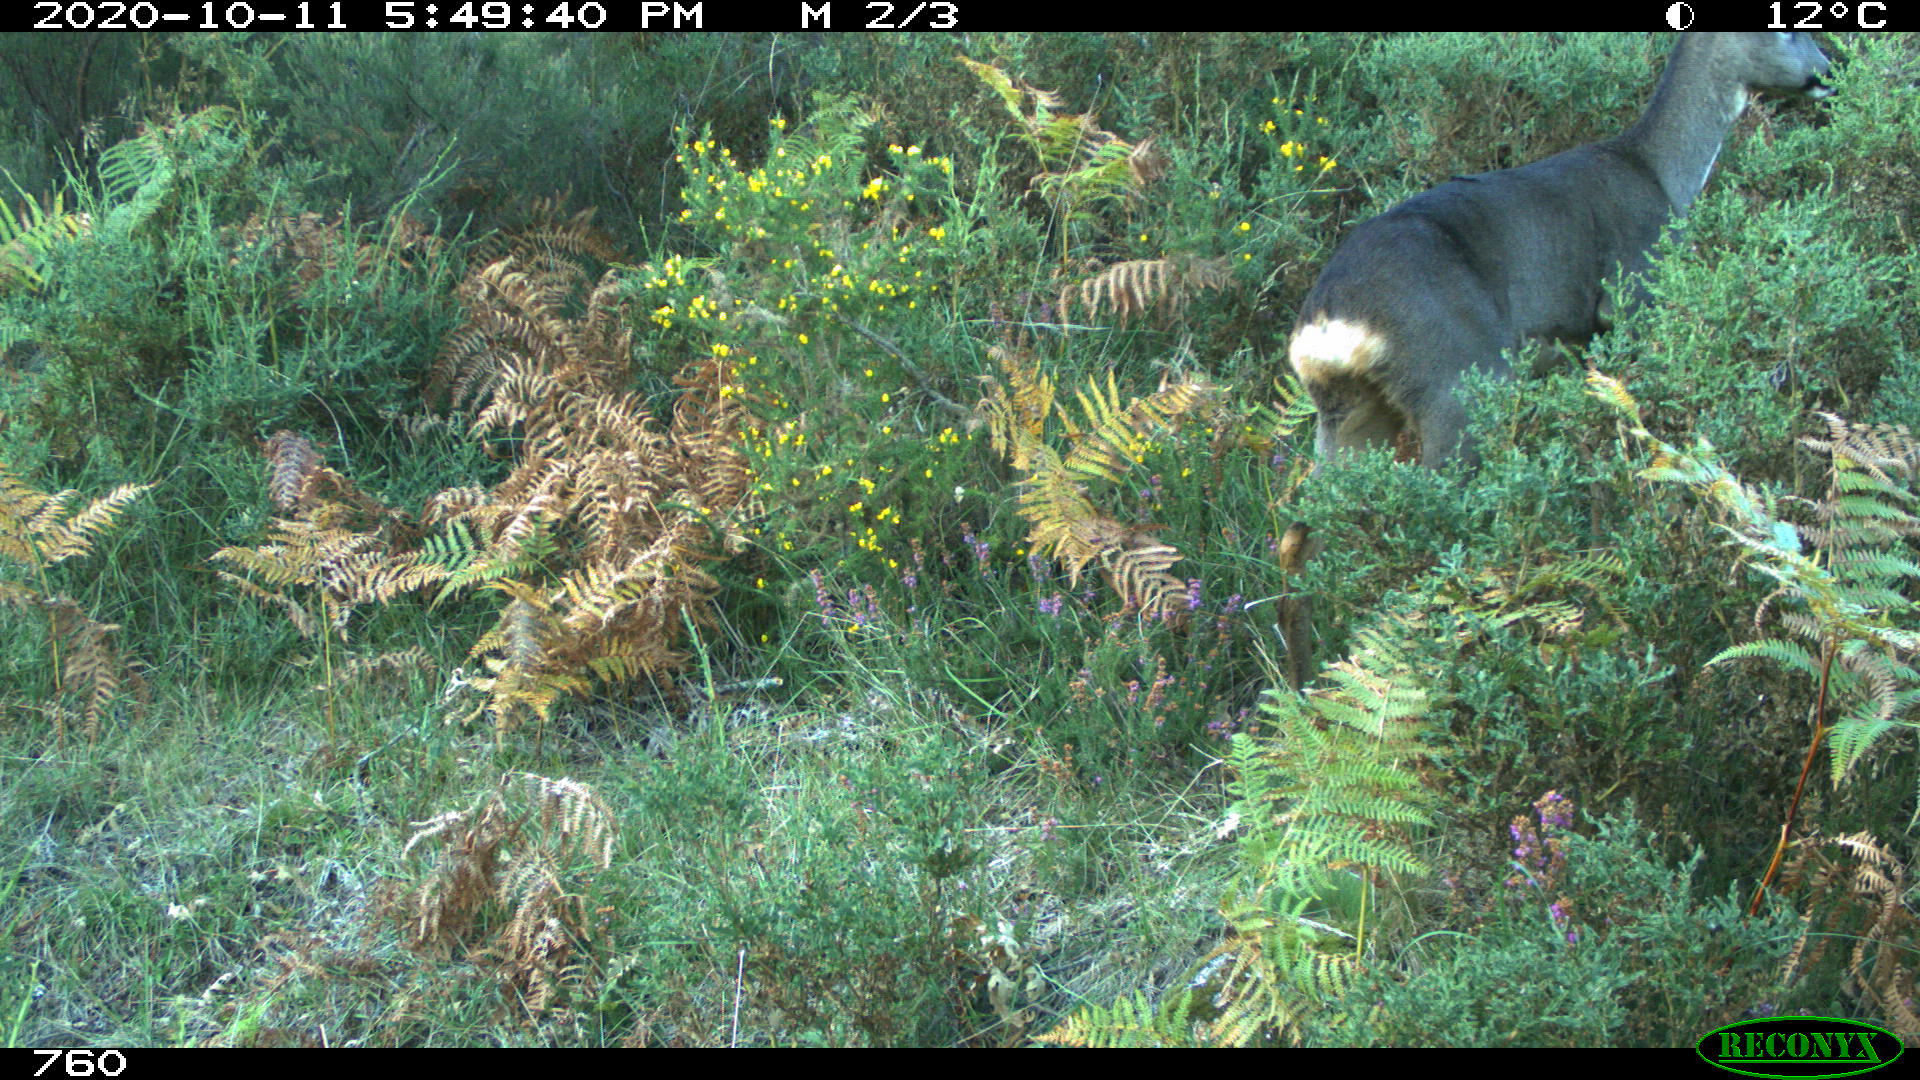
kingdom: Animalia
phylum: Chordata
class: Mammalia
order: Artiodactyla
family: Cervidae
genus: Capreolus
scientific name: Capreolus capreolus
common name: Western roe deer
